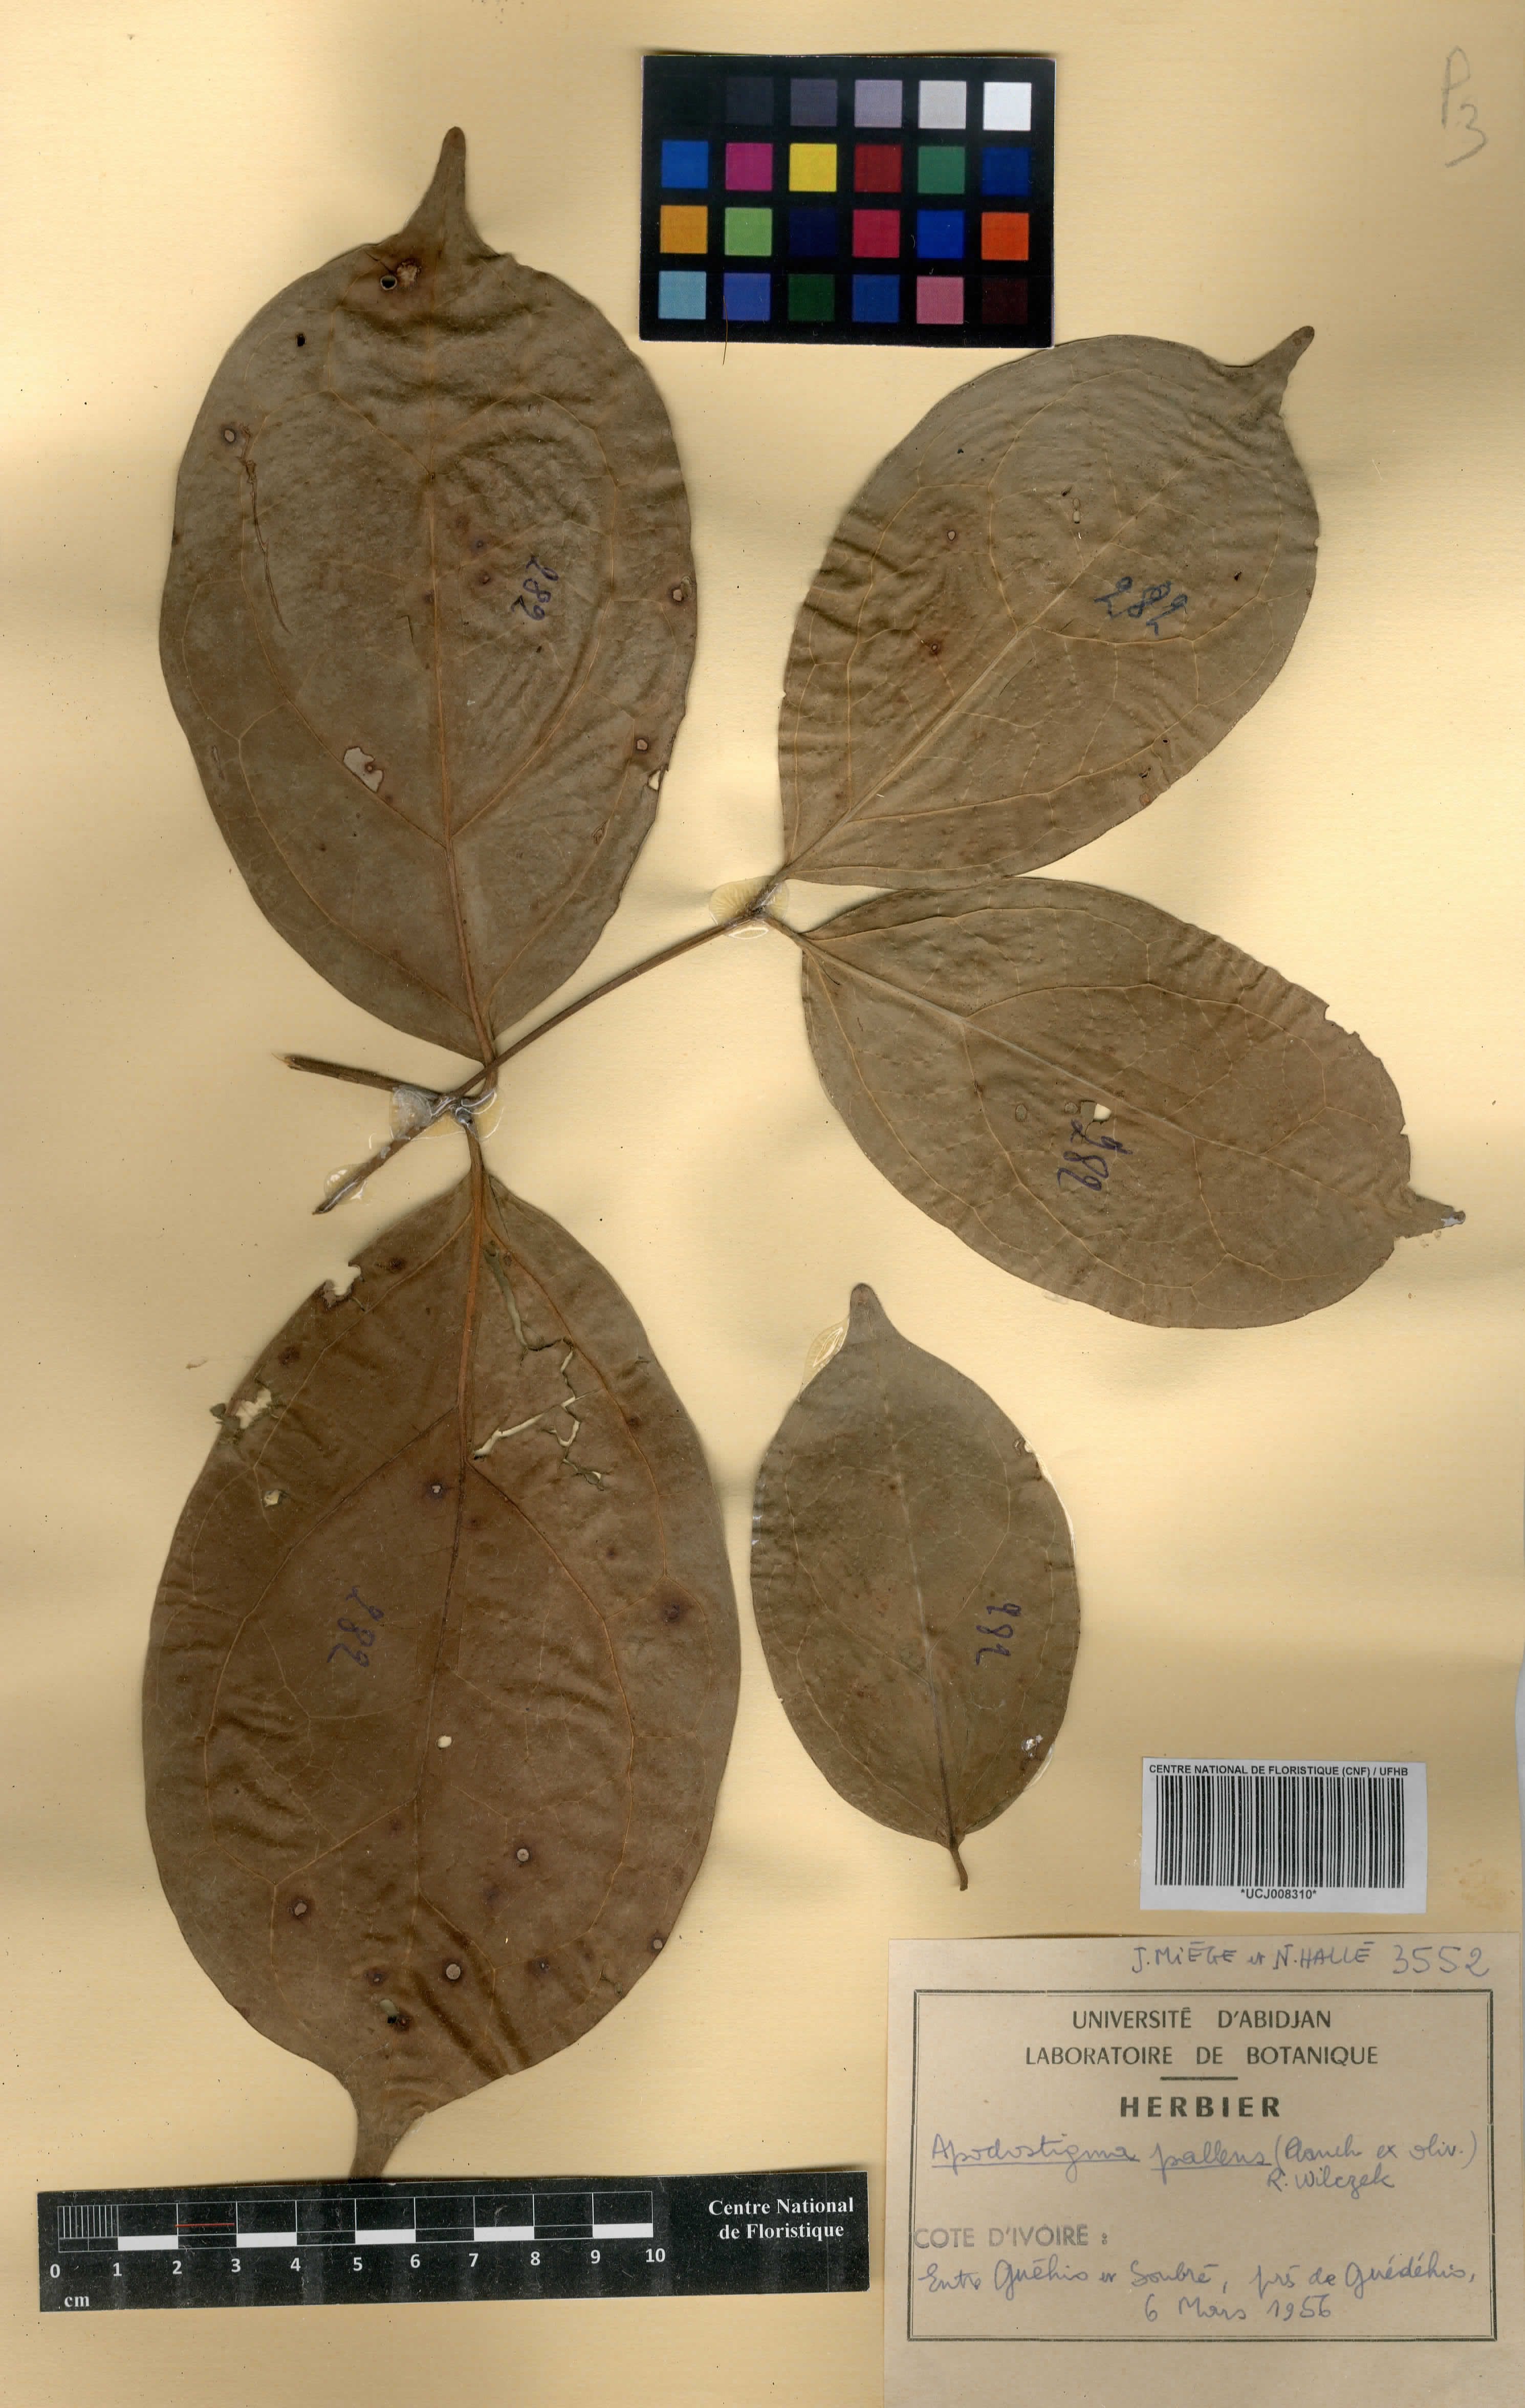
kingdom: Plantae
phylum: Tracheophyta
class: Magnoliopsida
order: Celastrales
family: Celastraceae
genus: Apodostigma
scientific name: Apodostigma pallens
